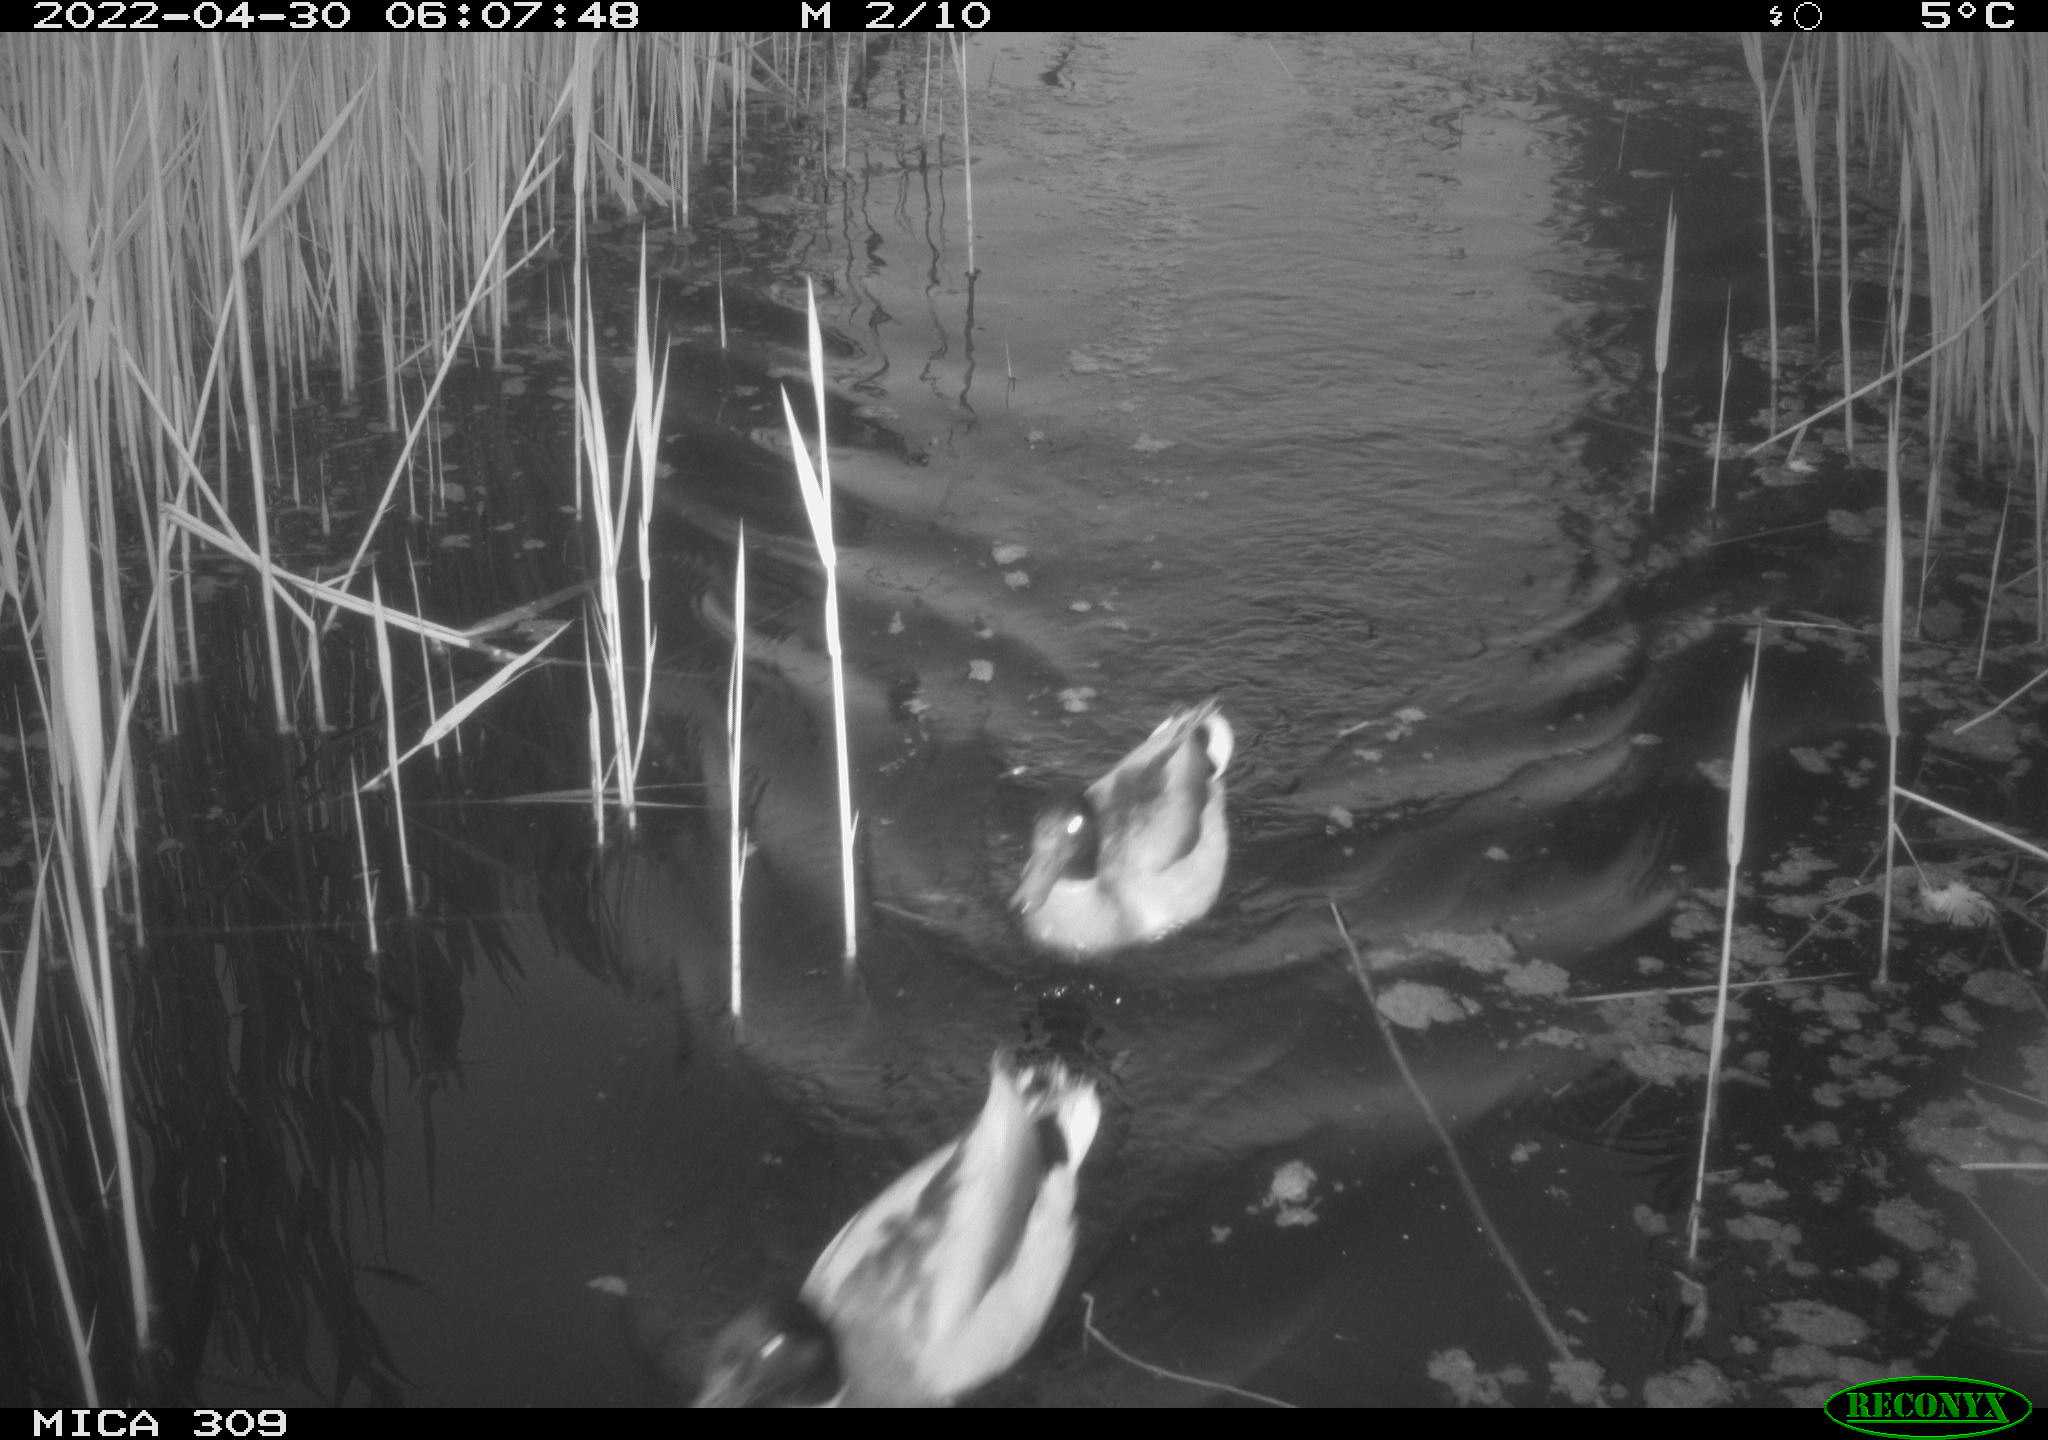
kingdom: Animalia
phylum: Chordata
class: Aves
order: Anseriformes
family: Anatidae
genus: Anas
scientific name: Anas platyrhynchos
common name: Mallard
